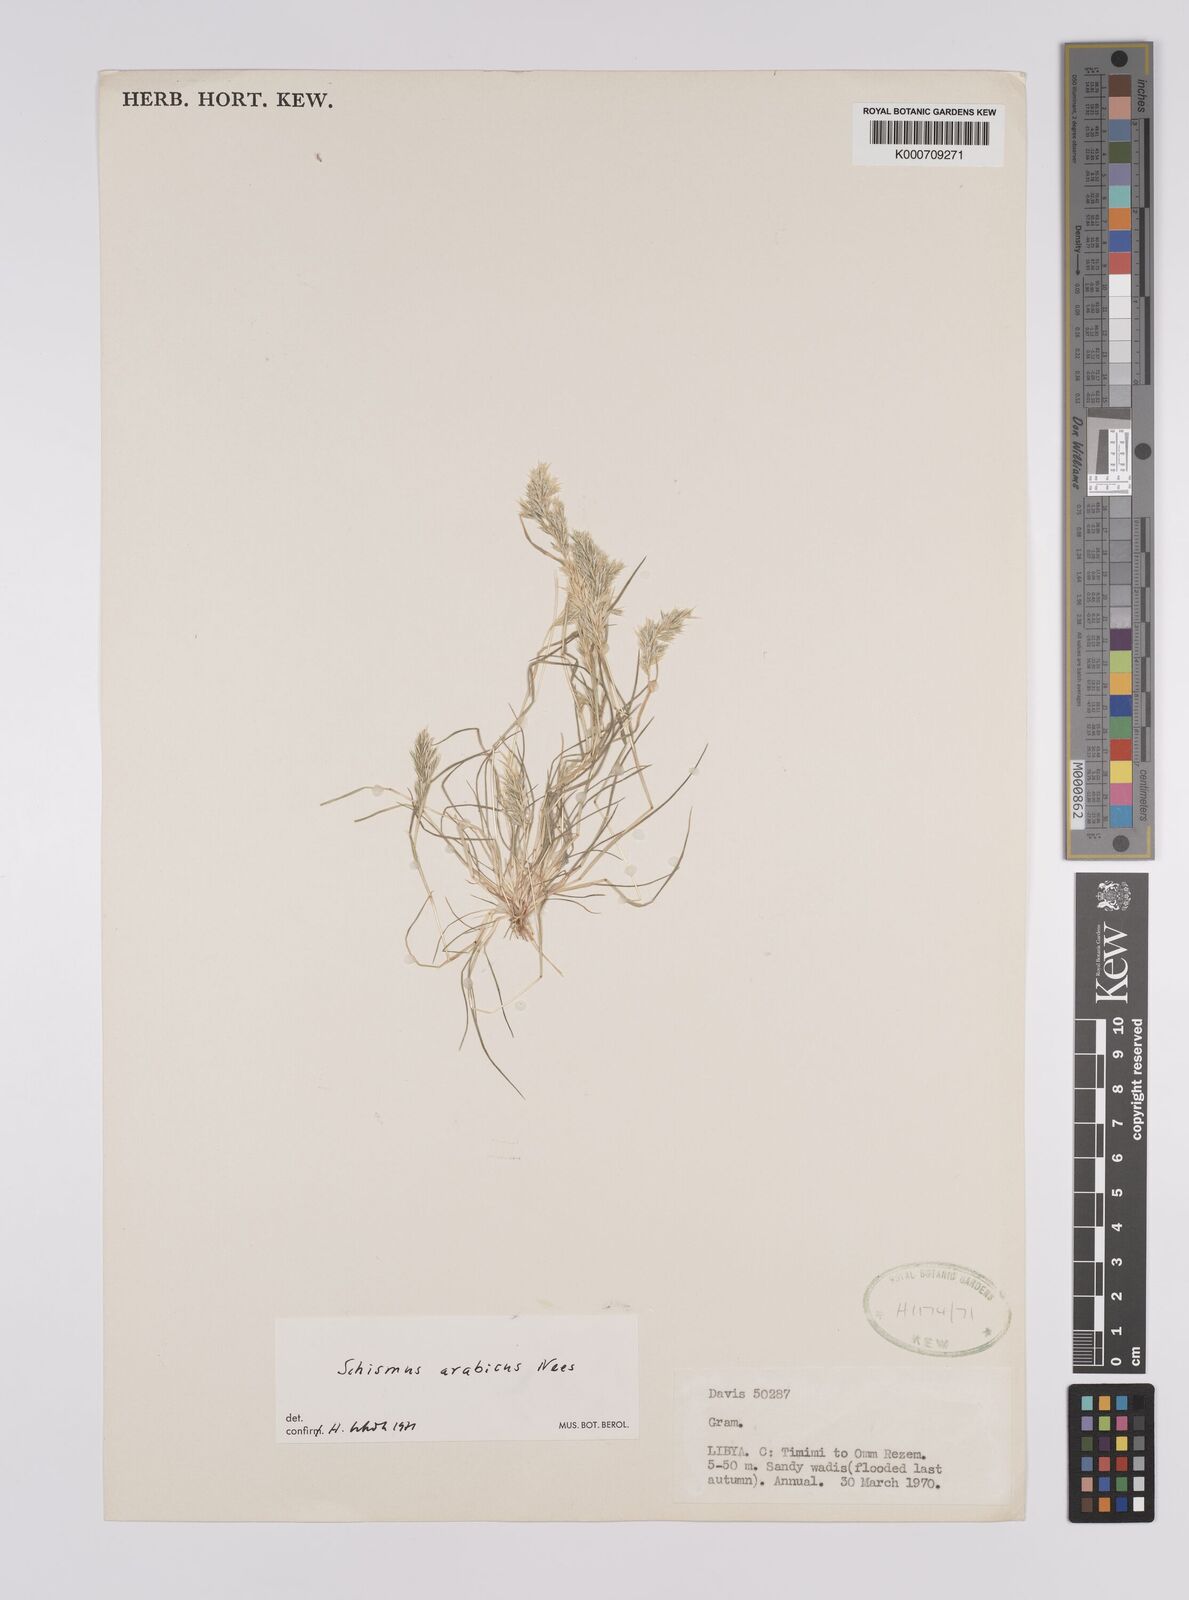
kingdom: Plantae
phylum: Tracheophyta
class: Liliopsida
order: Poales
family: Poaceae
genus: Schismus
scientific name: Schismus arabicus
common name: Arabian schismus
